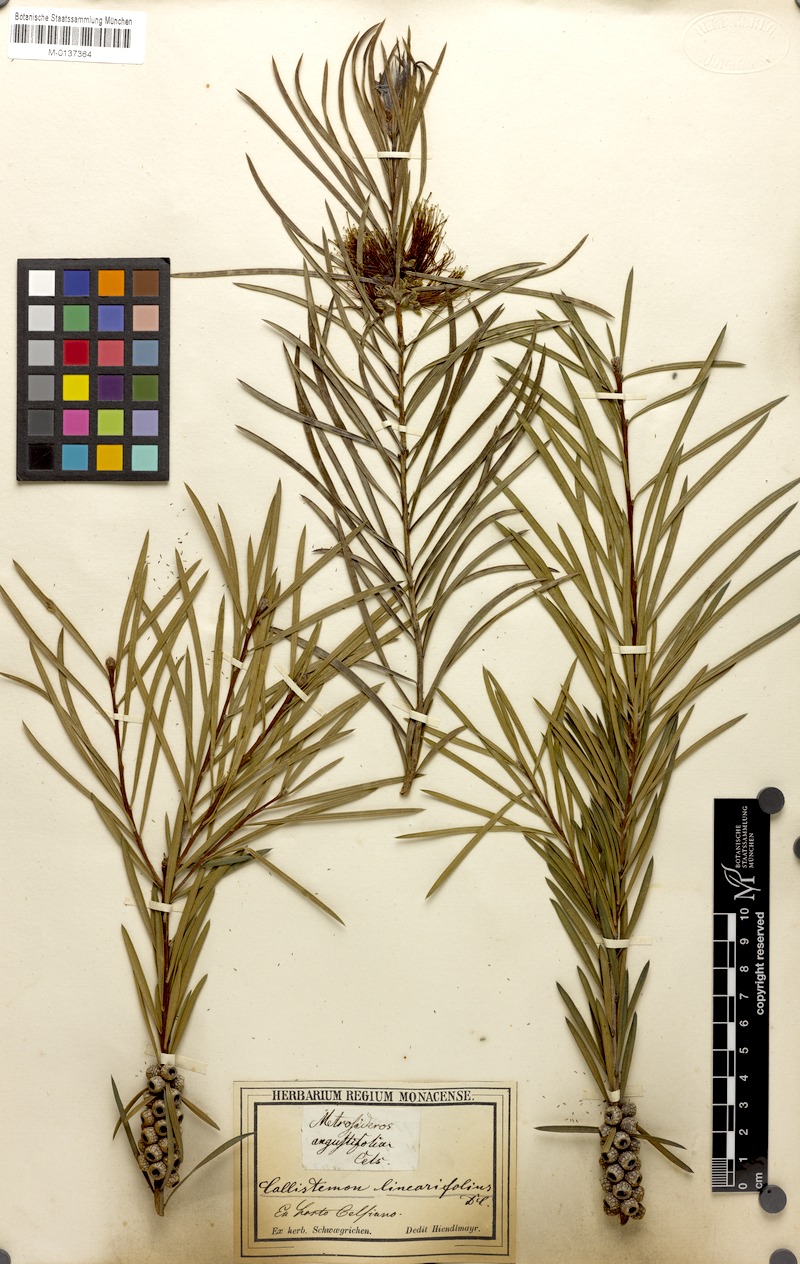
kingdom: Plantae
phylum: Tracheophyta
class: Magnoliopsida
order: Myrtales
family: Myrtaceae
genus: Callistemon
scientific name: Callistemon linearifolius
